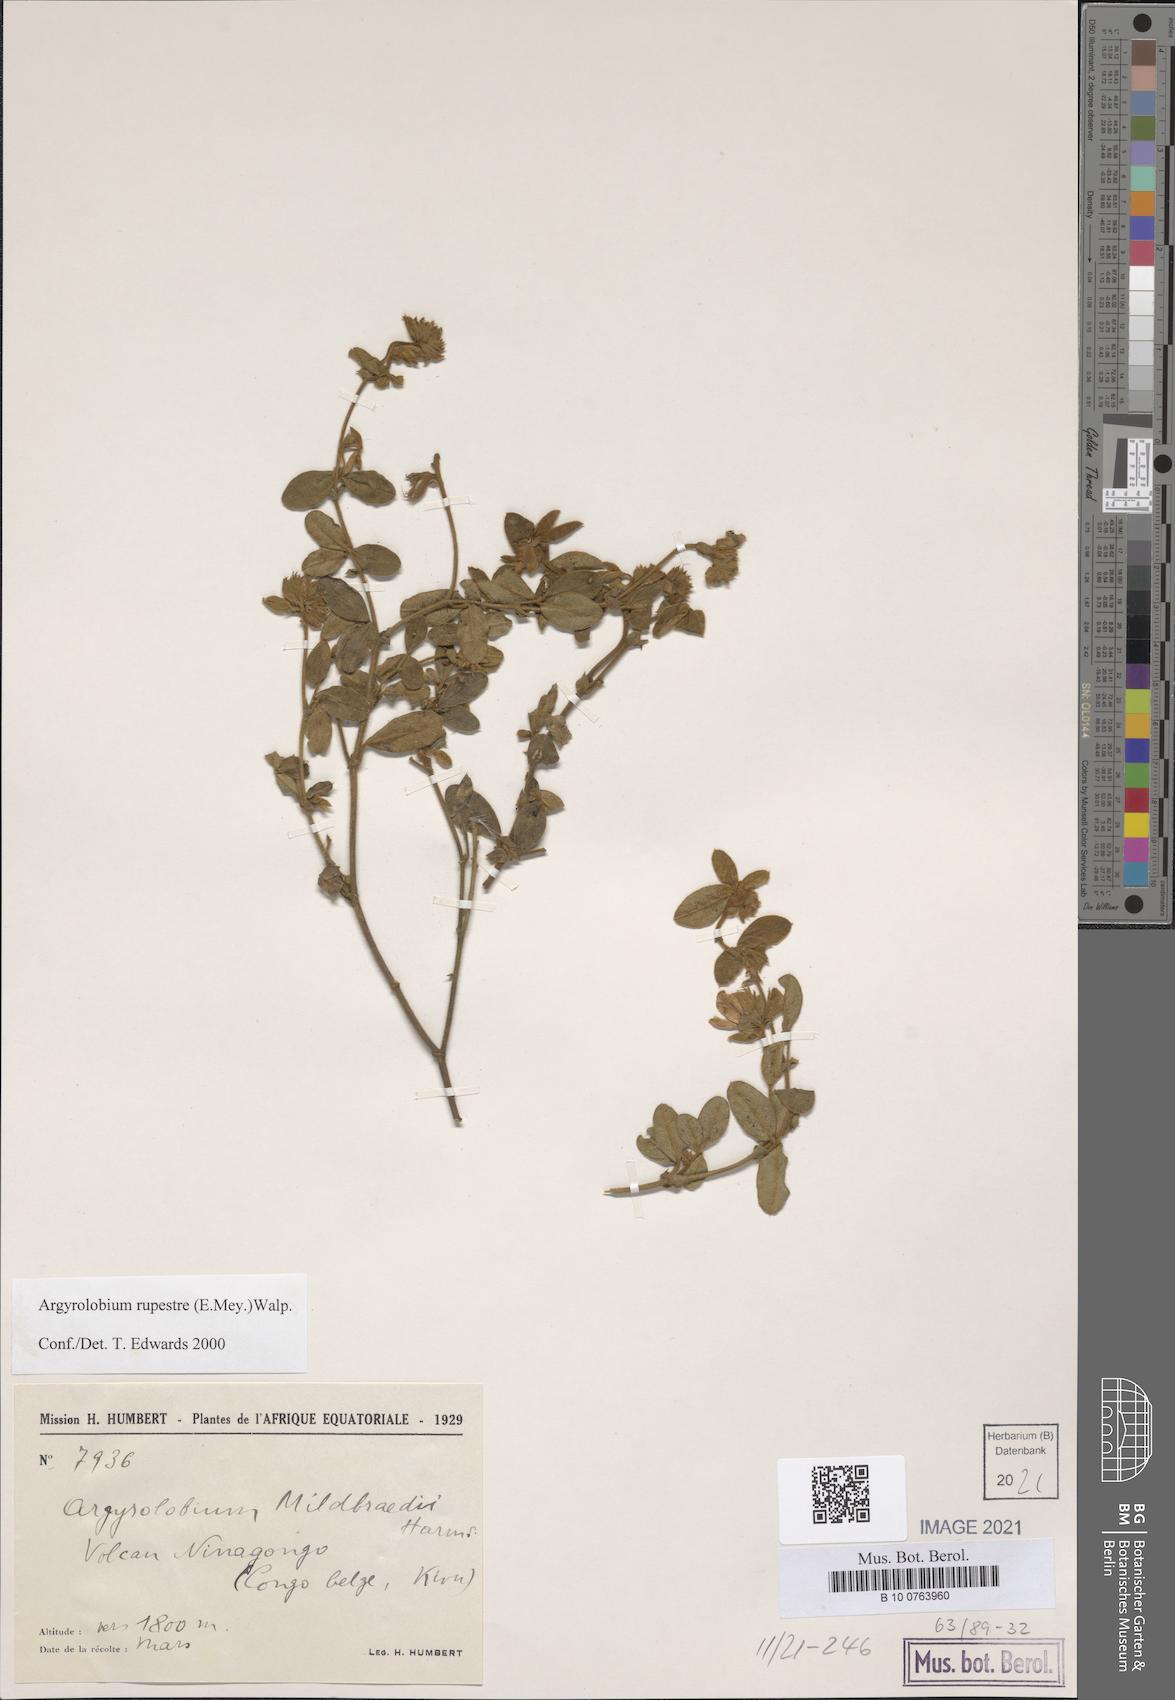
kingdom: Plantae
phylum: Tracheophyta
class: Magnoliopsida
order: Fabales
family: Fabaceae
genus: Argyrolobium
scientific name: Argyrolobium rupestre
